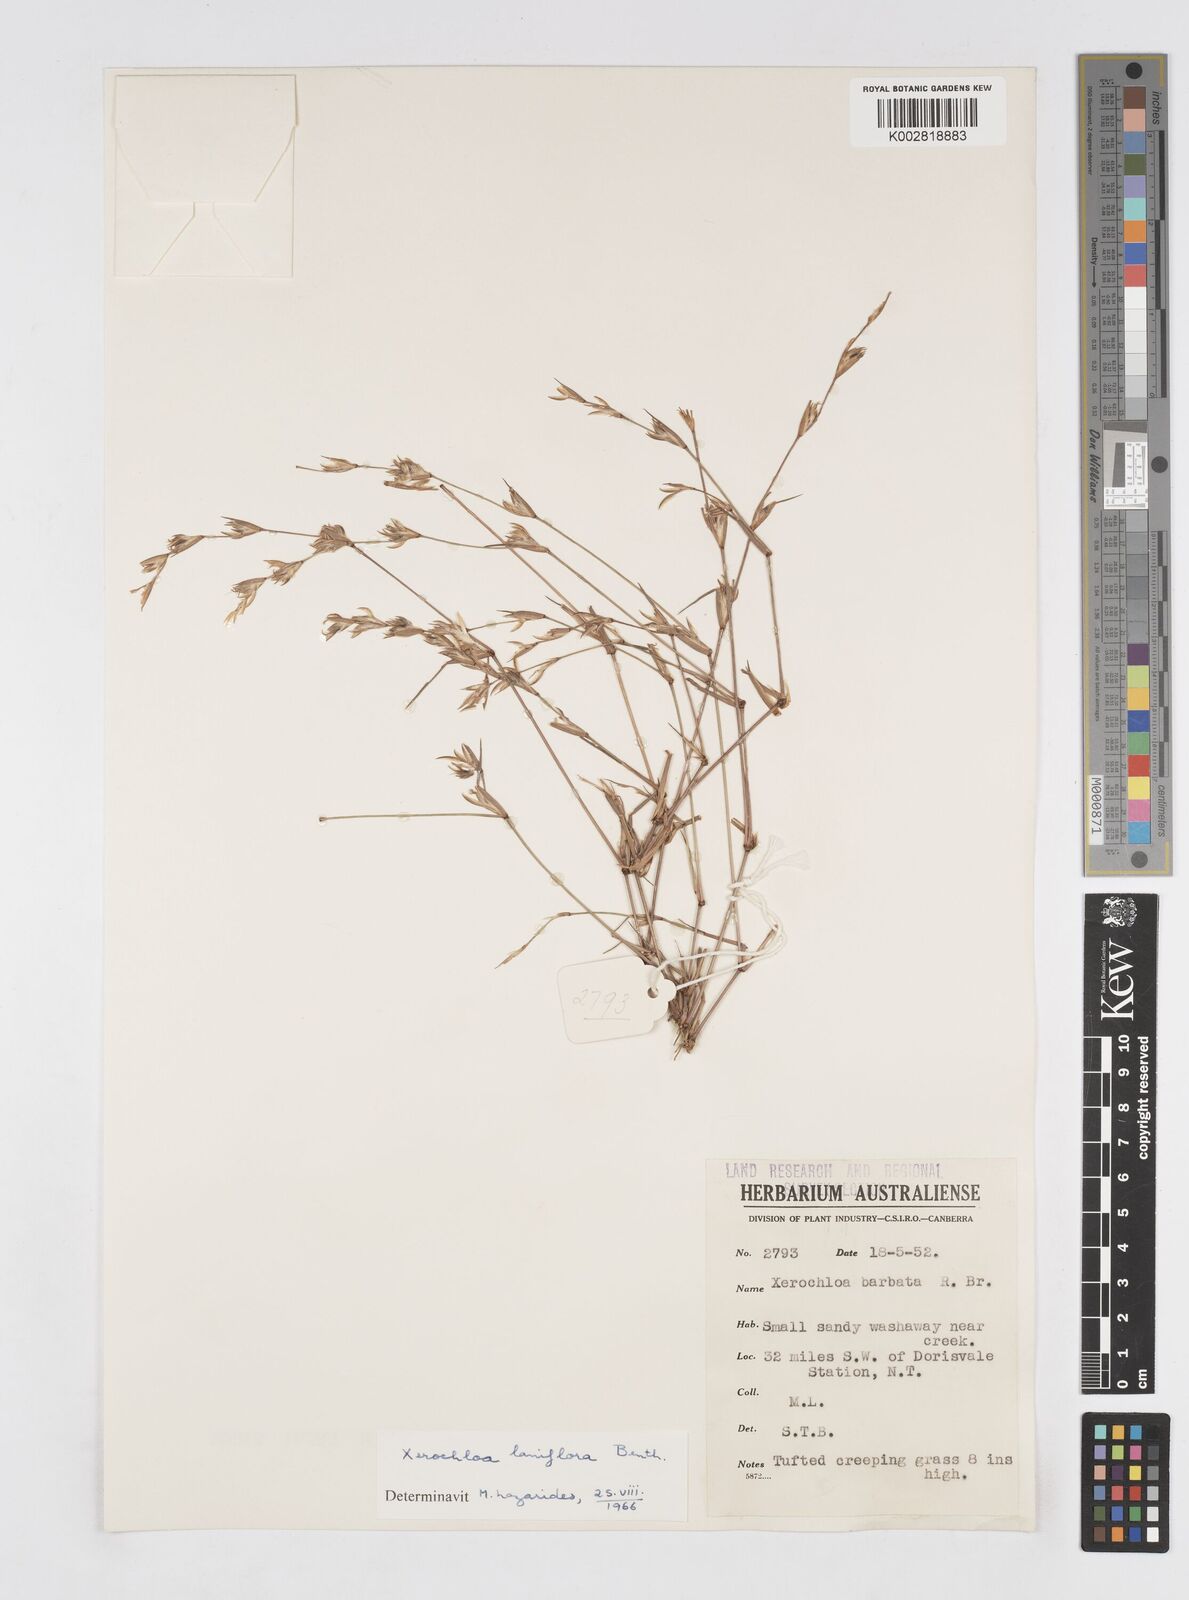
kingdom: Plantae
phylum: Tracheophyta
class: Liliopsida
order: Poales
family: Poaceae
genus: Xerochloa
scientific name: Xerochloa laniflora
